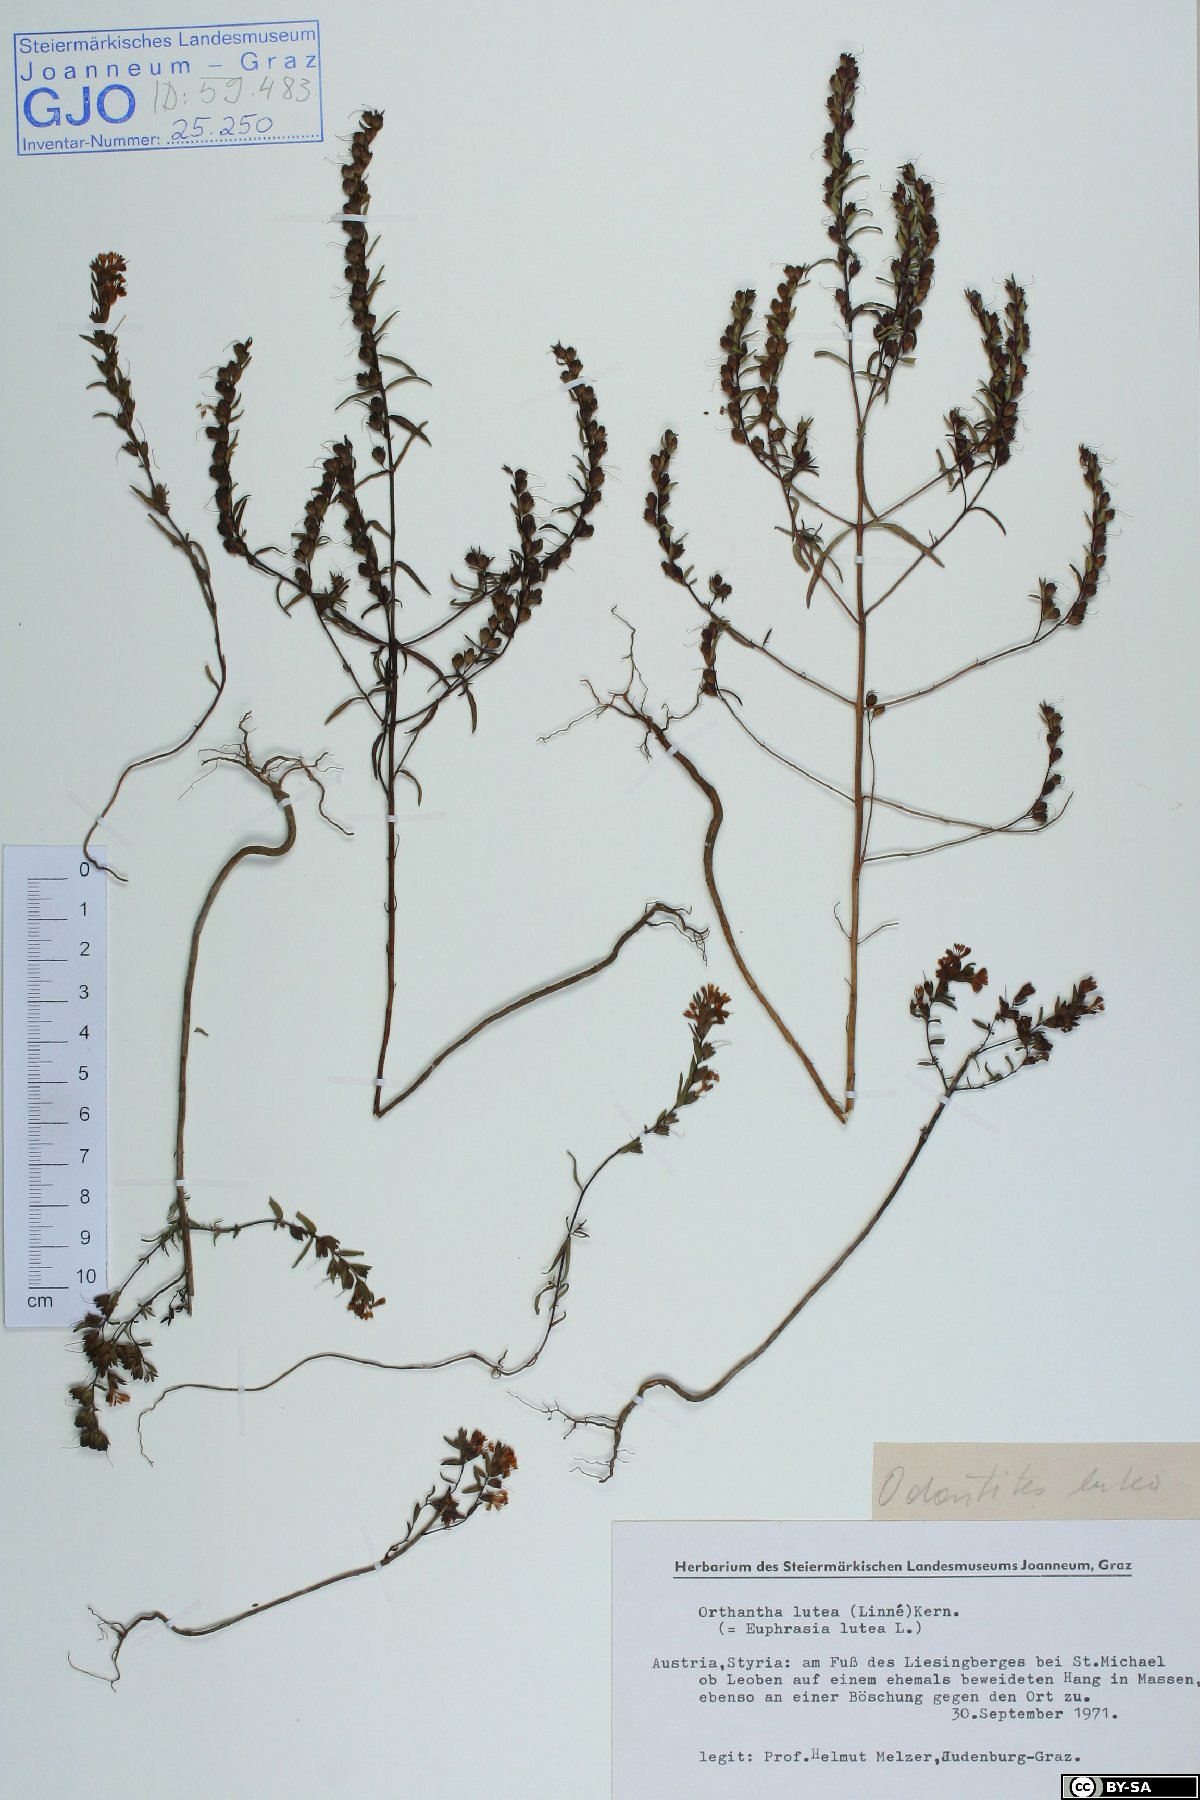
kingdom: Plantae
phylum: Tracheophyta
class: Magnoliopsida
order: Lamiales
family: Orobanchaceae
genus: Odontites
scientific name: Odontites luteus
